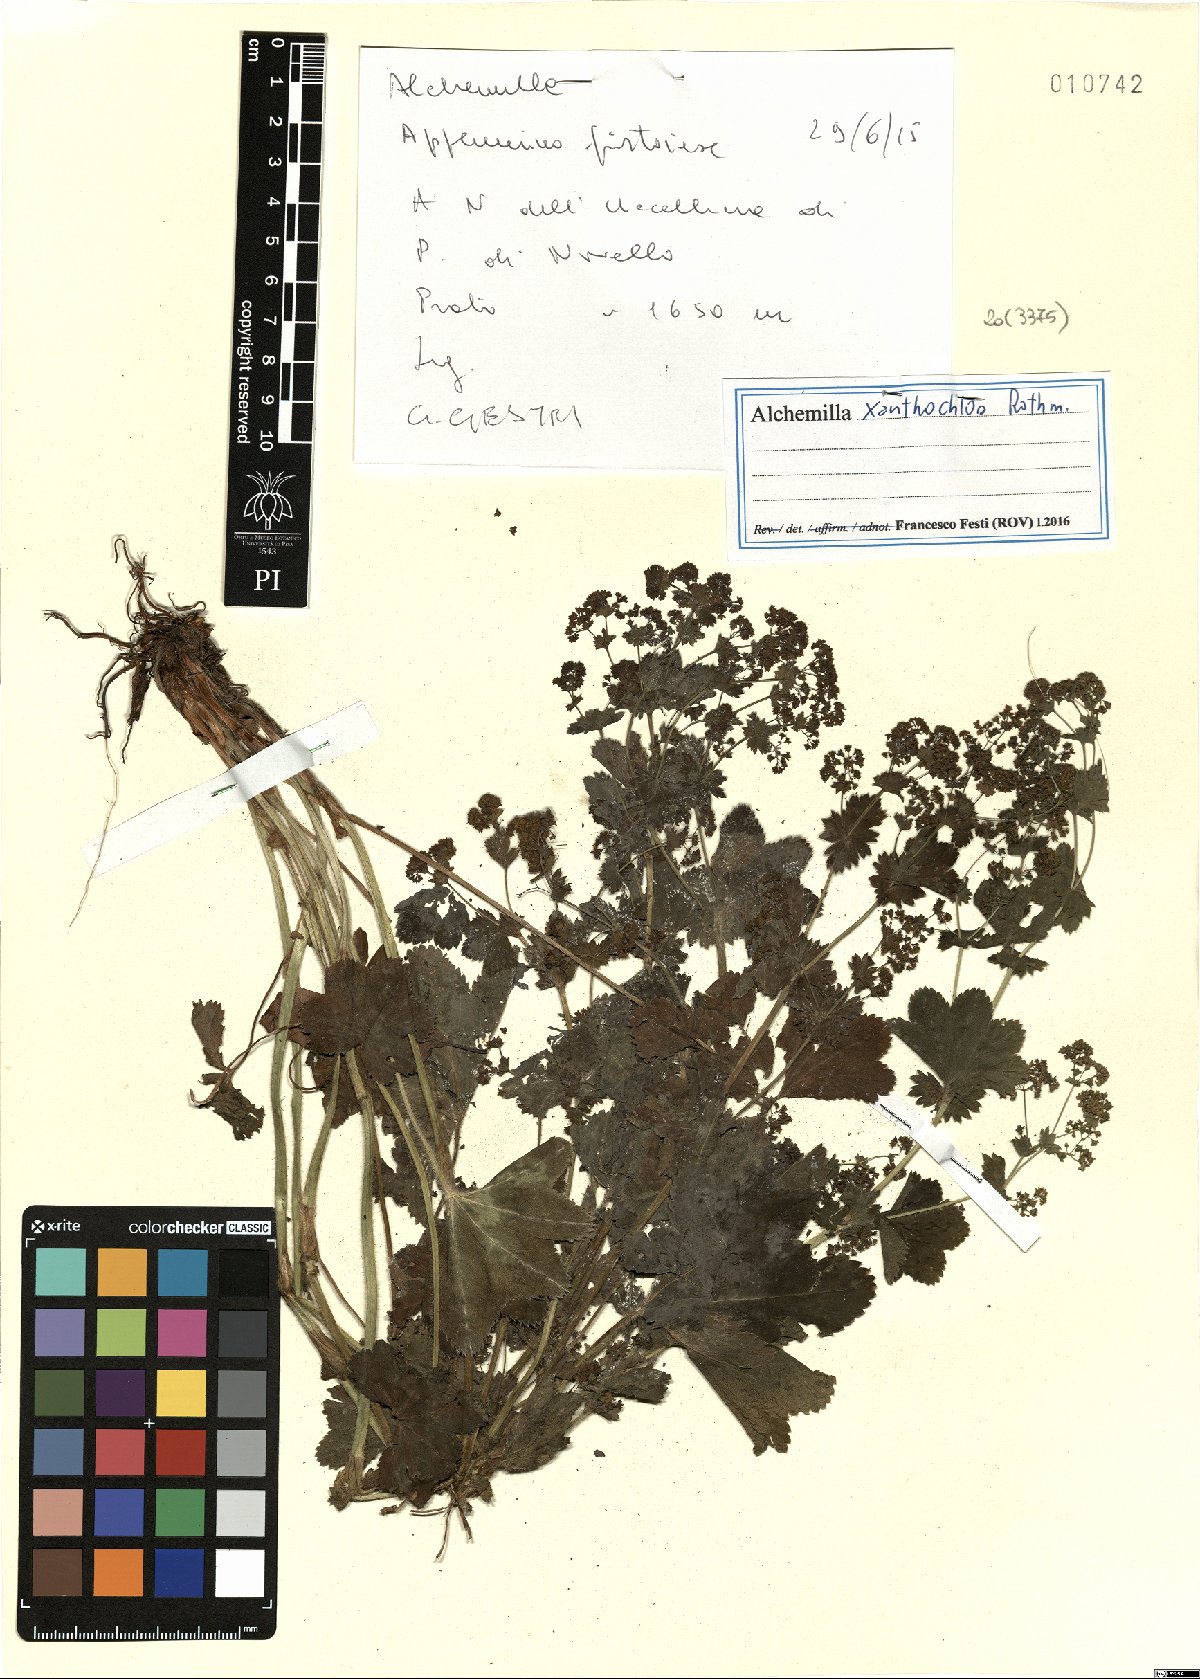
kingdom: Plantae
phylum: Tracheophyta
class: Magnoliopsida
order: Rosales
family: Rosaceae
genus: Alchemilla
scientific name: Alchemilla xanthochlora
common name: Intermediate lady's-mantle
